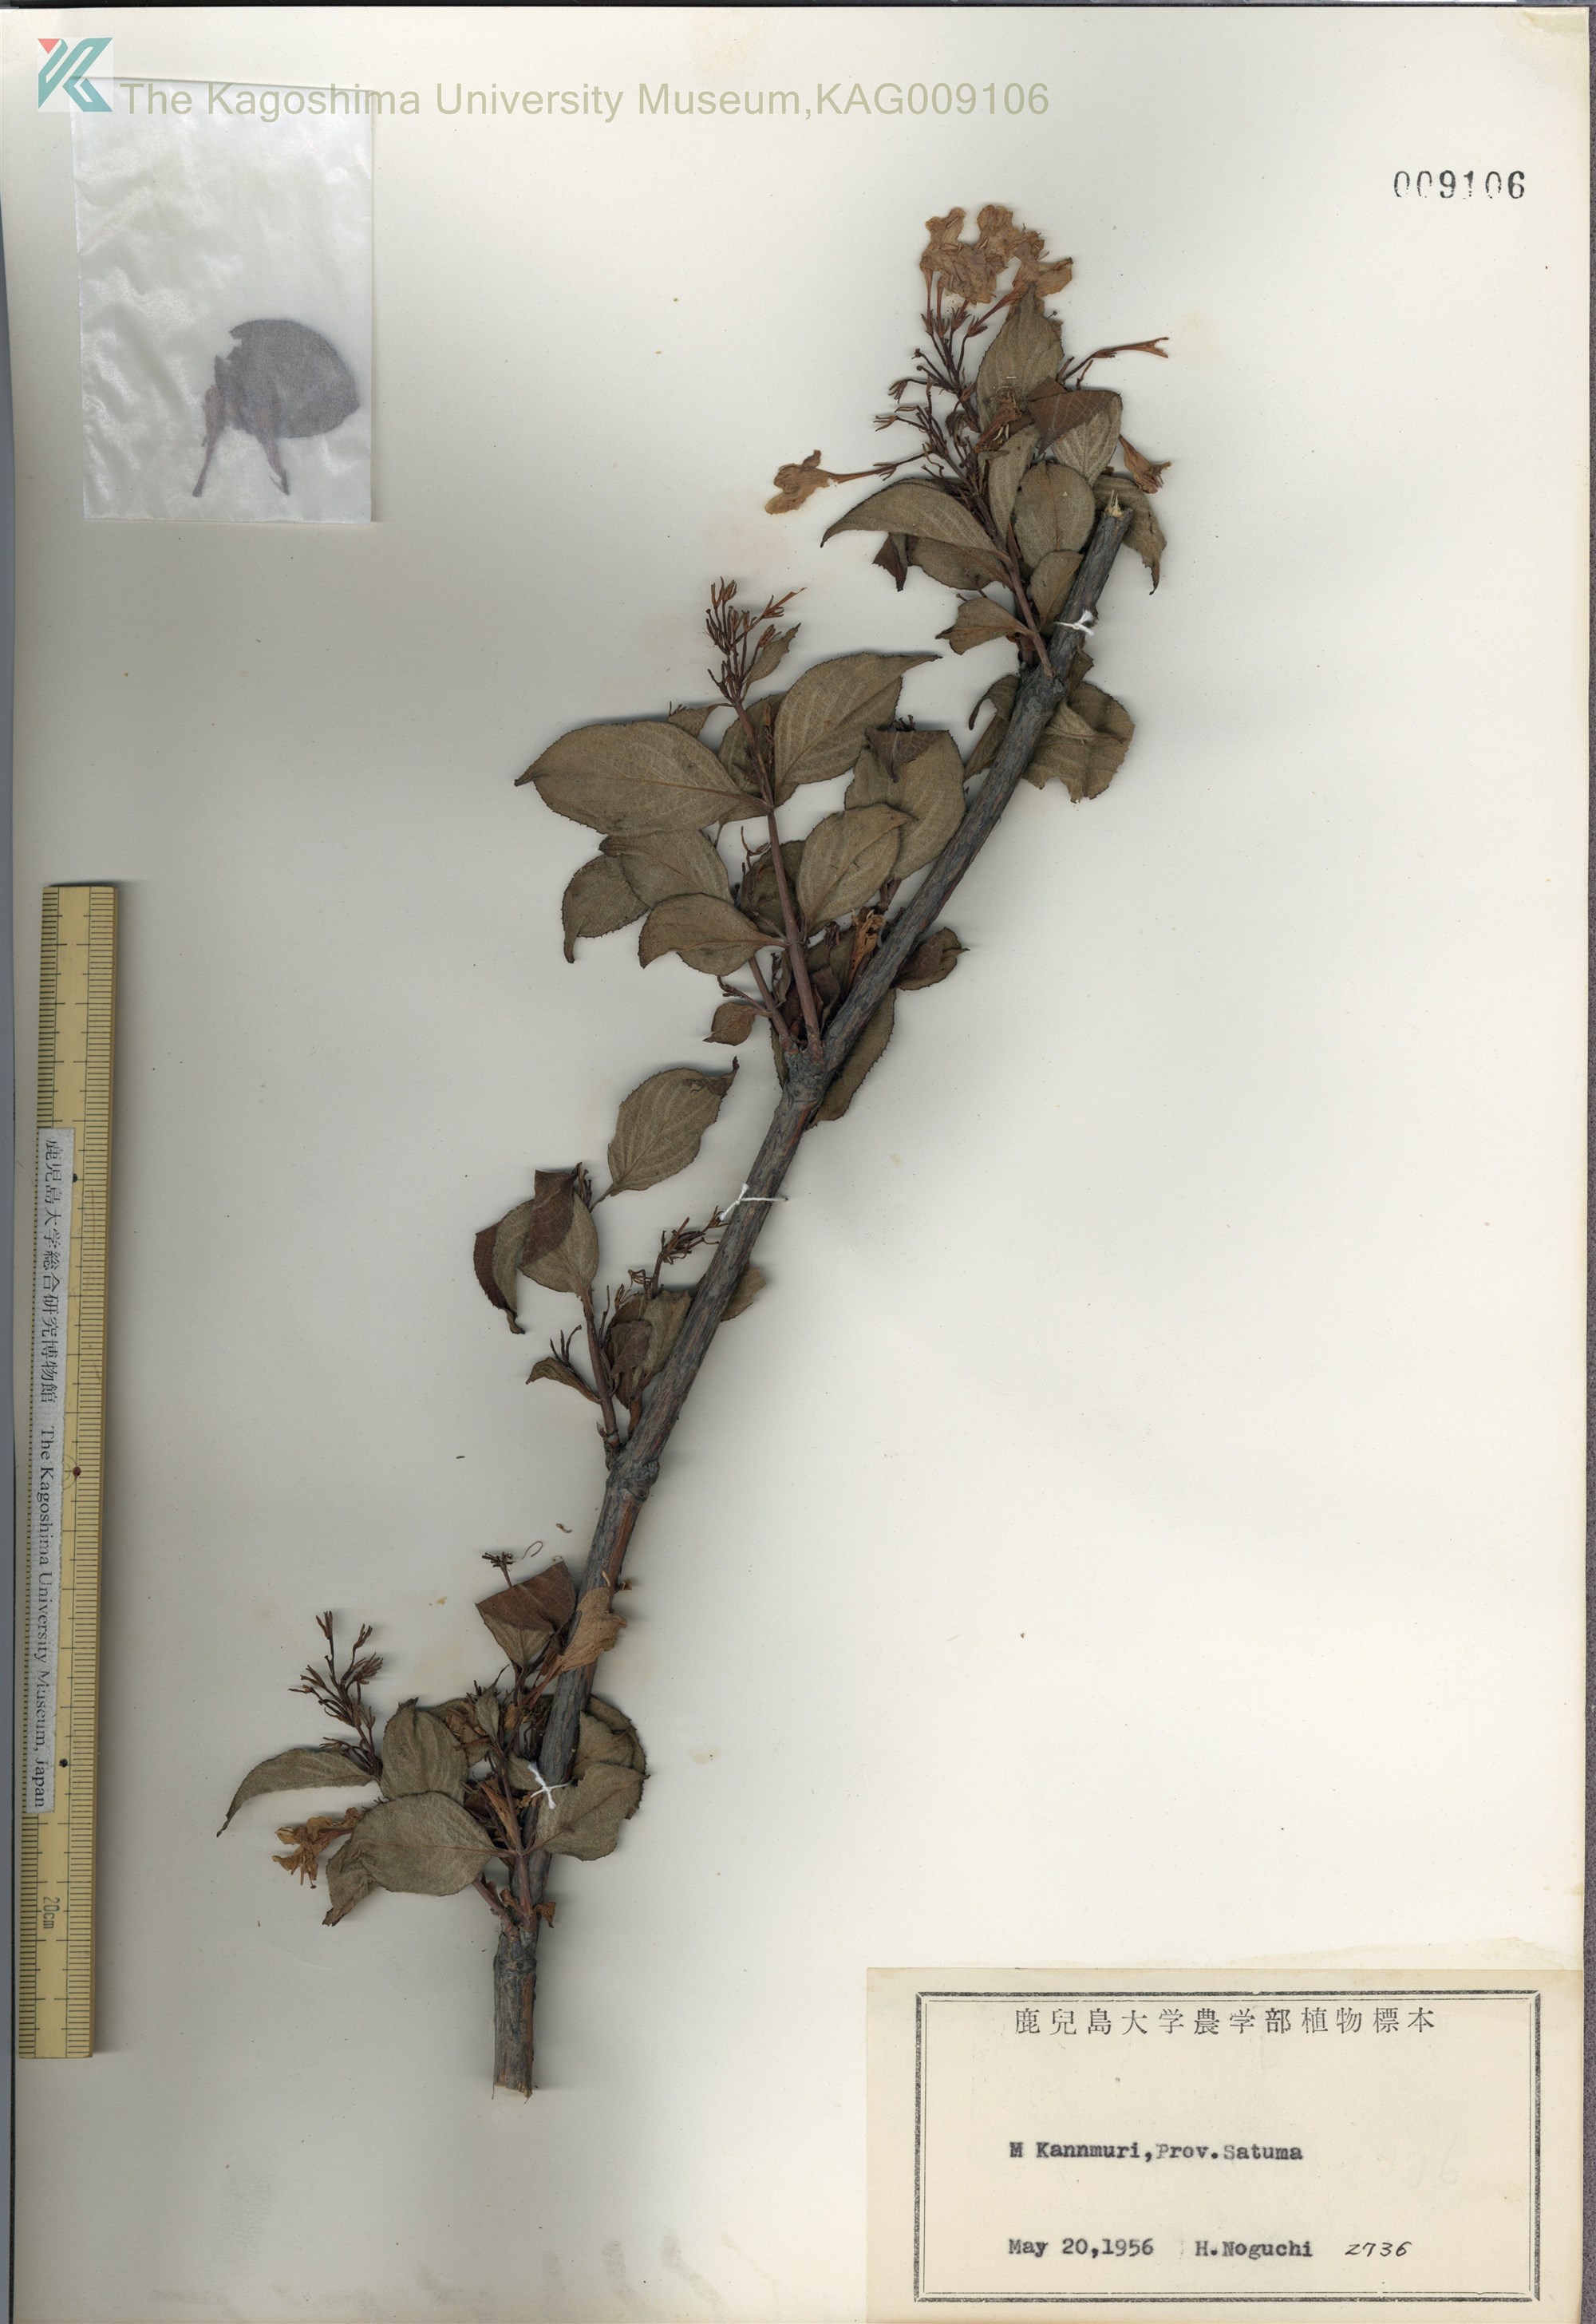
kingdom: Plantae
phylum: Tracheophyta
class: Magnoliopsida
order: Dipsacales
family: Caprifoliaceae
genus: Weigela
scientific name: Weigela hortensis
